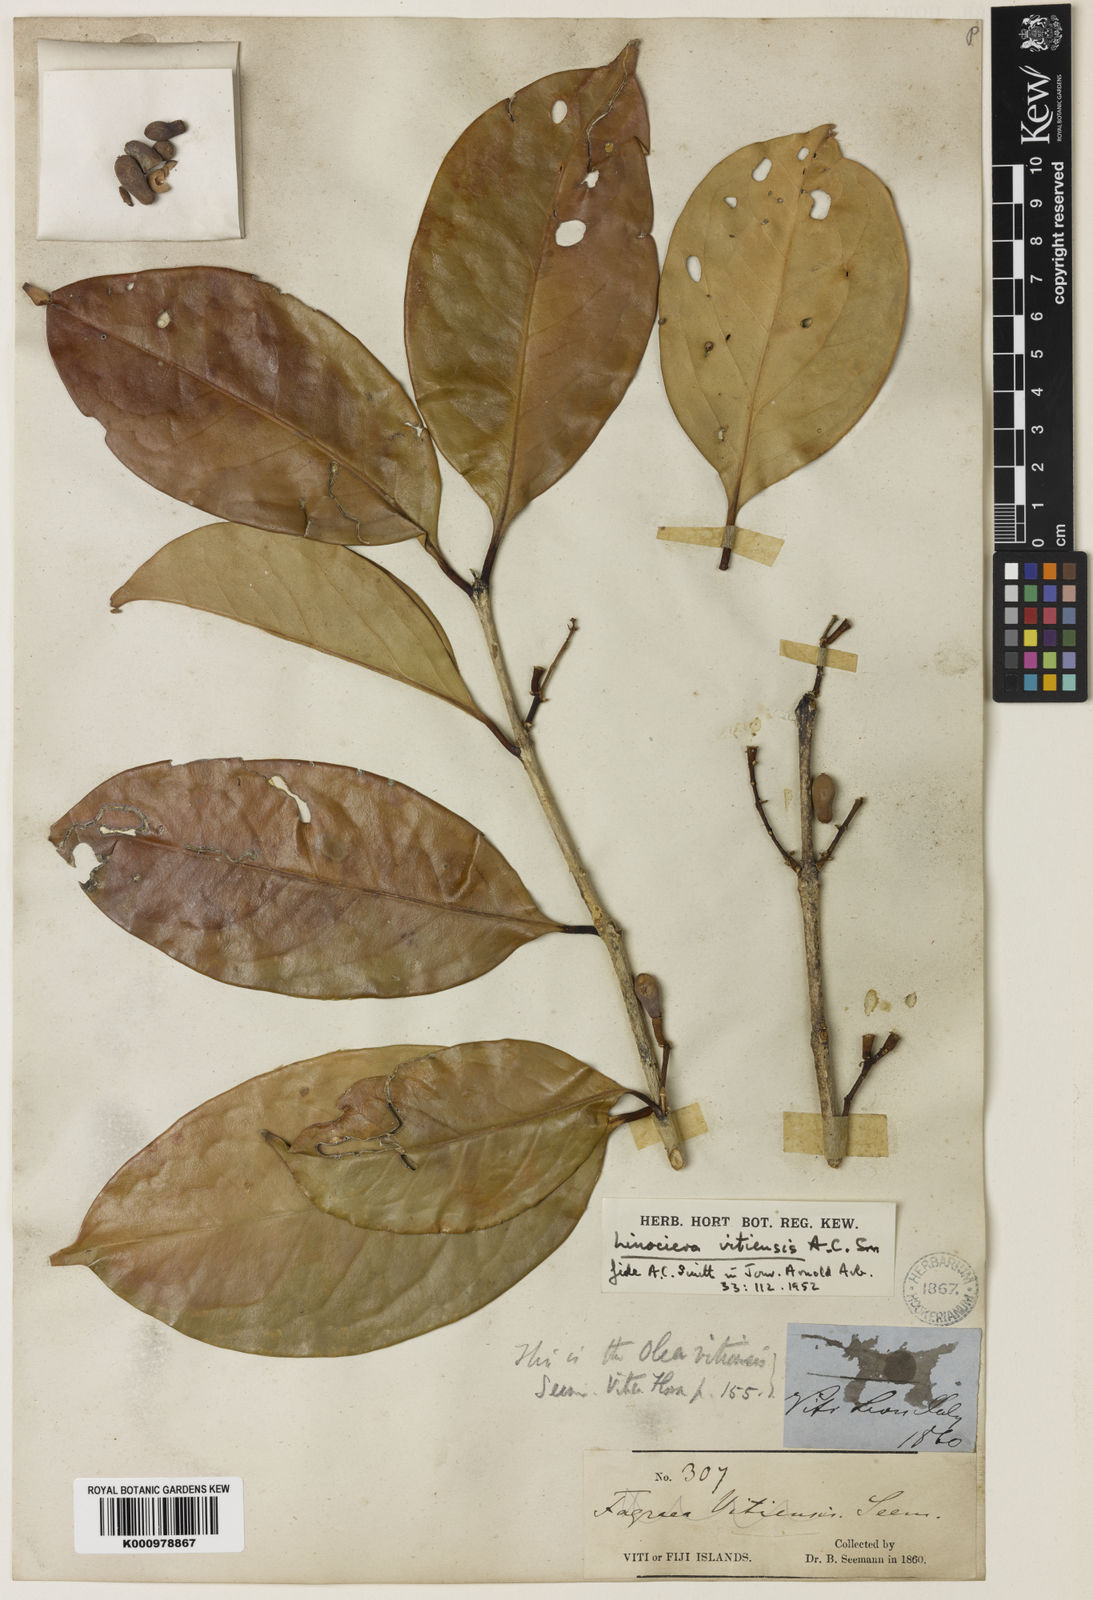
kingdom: Plantae
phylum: Tracheophyta
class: Magnoliopsida
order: Lamiales
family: Oleaceae
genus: Chionanthus
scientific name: Chionanthus vitiensis
